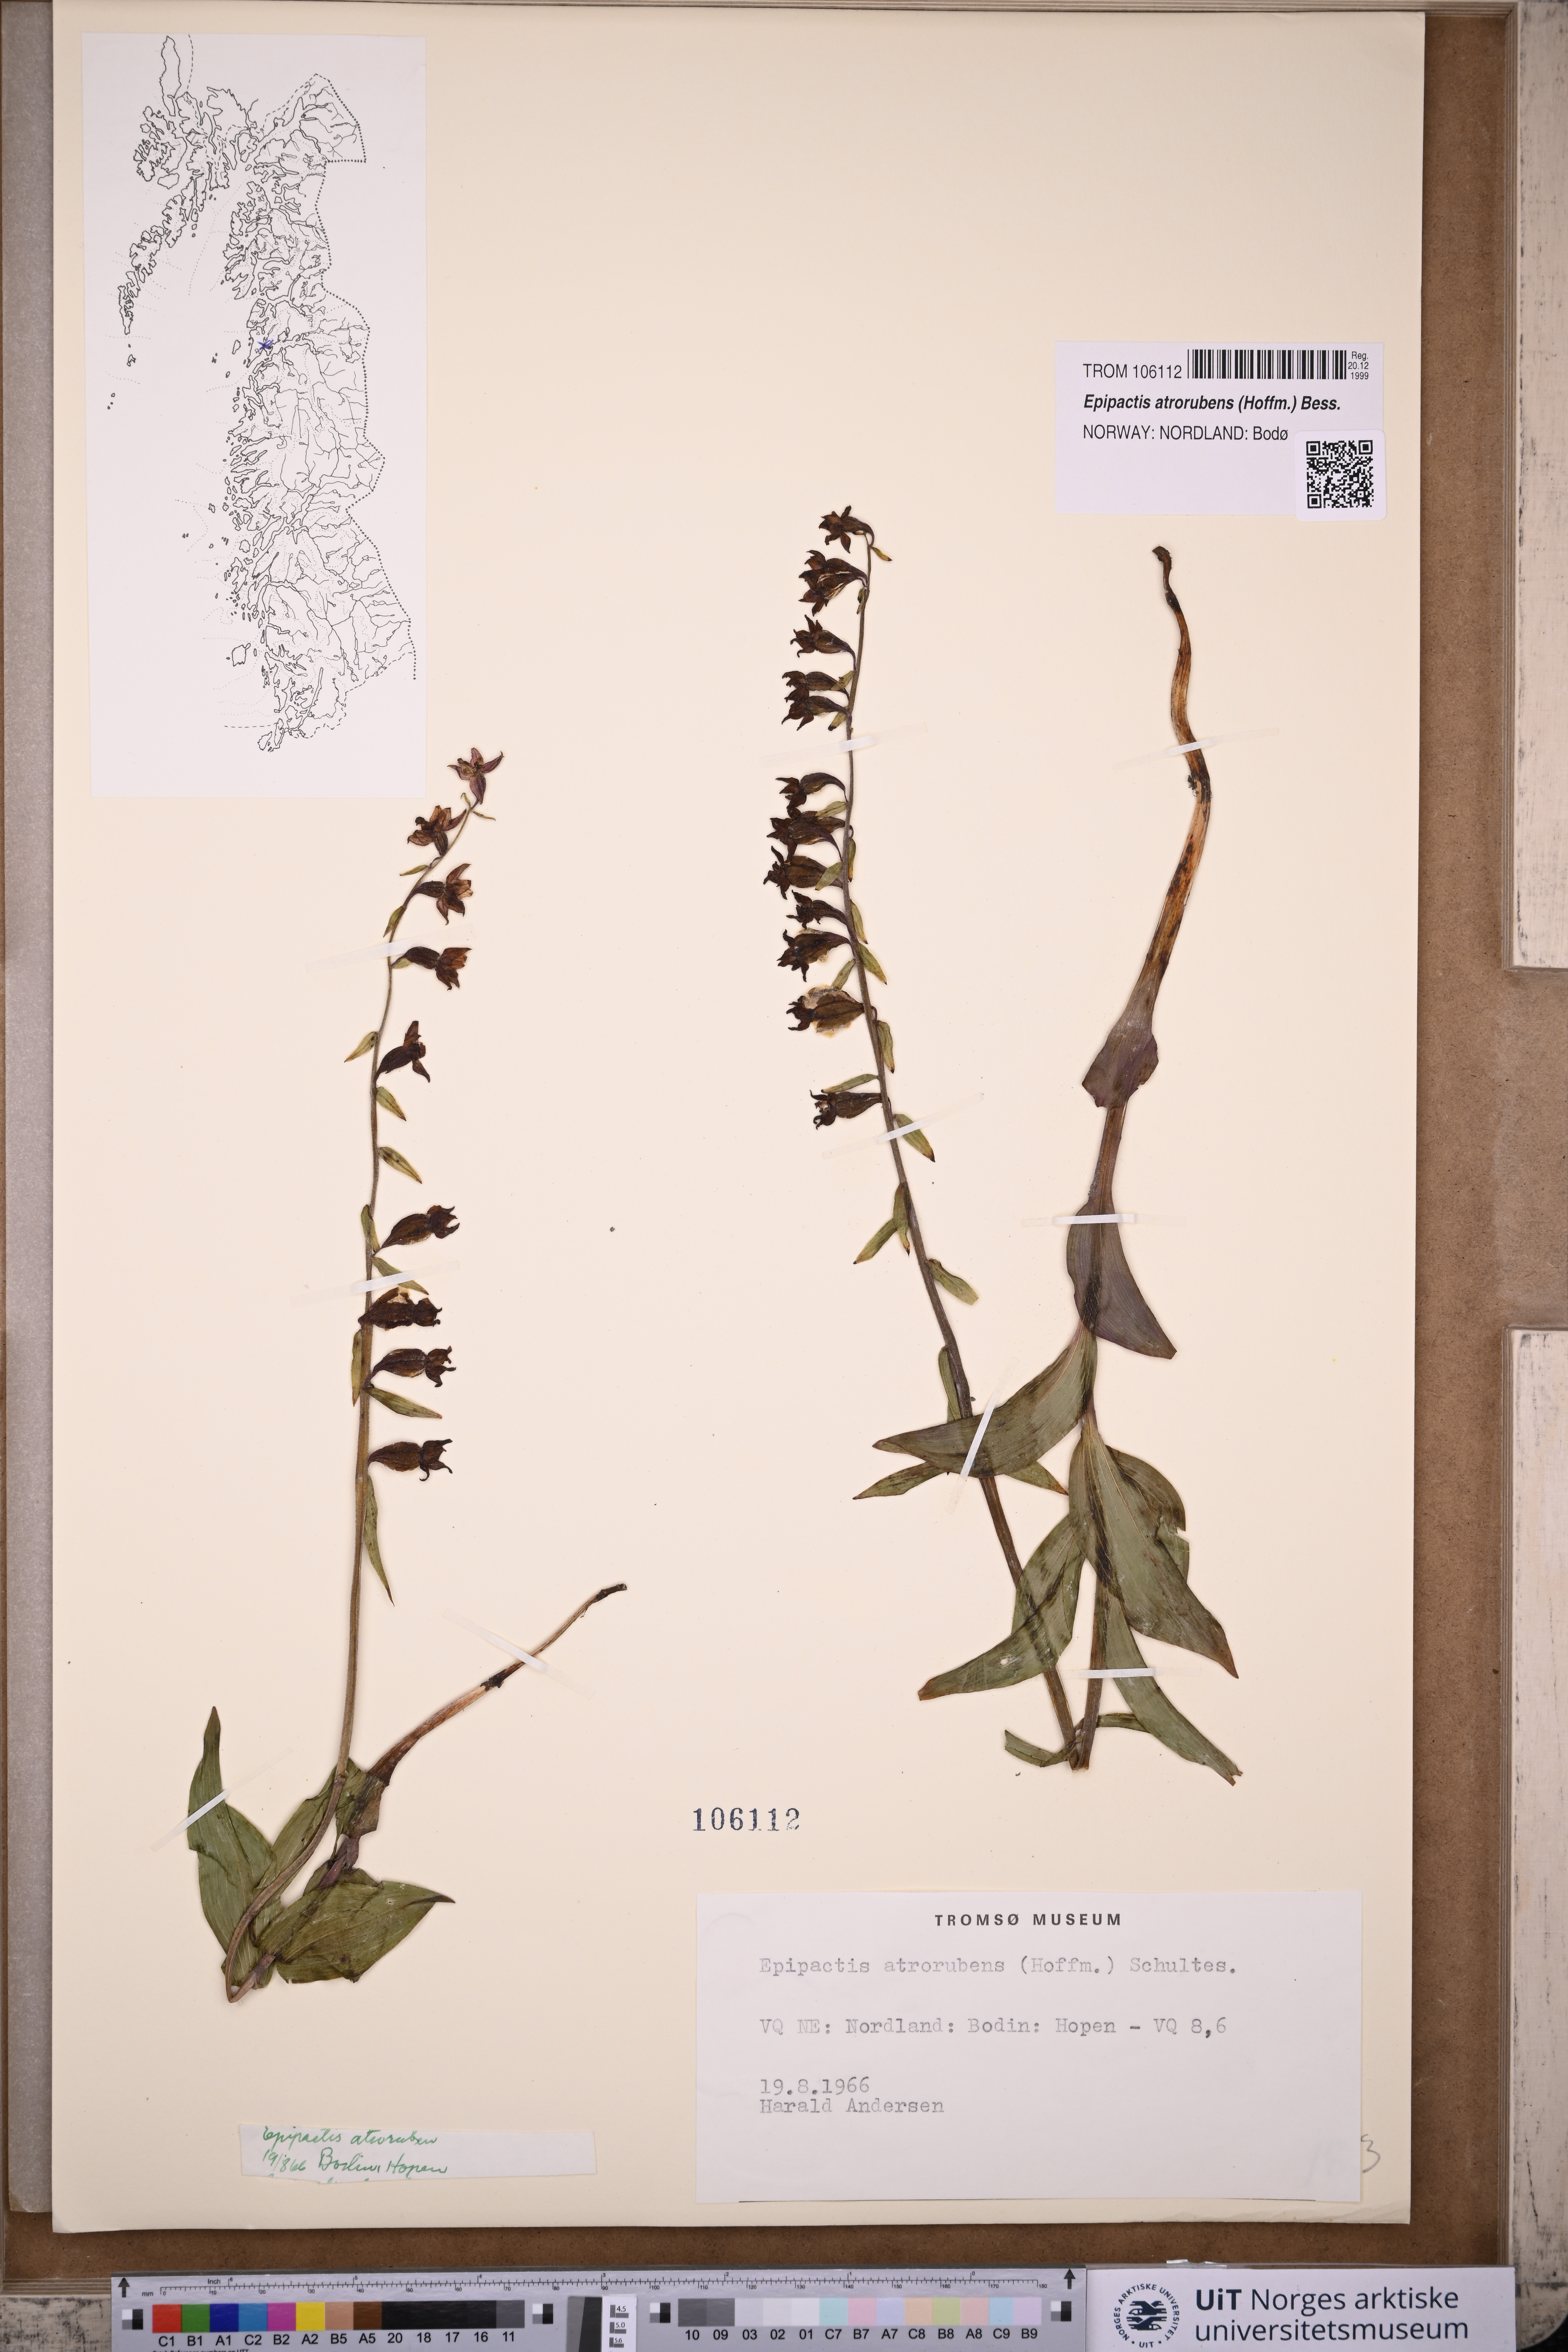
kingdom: Plantae
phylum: Tracheophyta
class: Liliopsida
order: Asparagales
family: Orchidaceae
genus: Epipactis
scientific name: Epipactis atrorubens
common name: Dark-red helleborine
